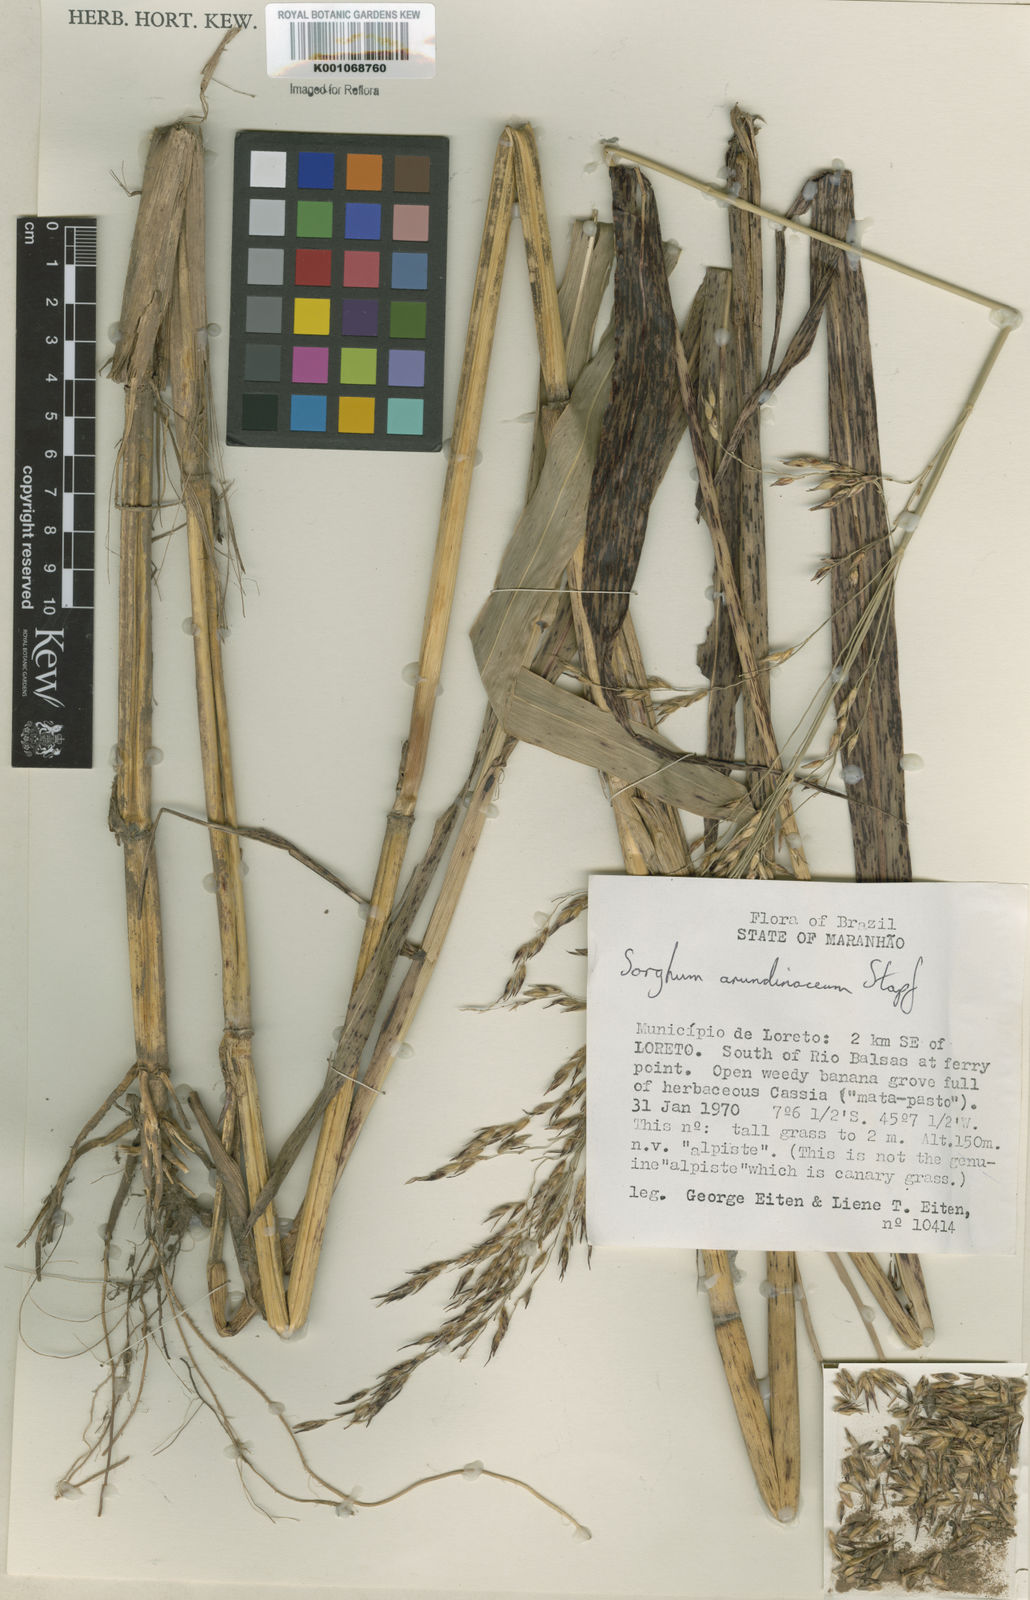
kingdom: Plantae
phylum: Tracheophyta
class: Liliopsida
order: Poales
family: Poaceae
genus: Sorghum
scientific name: Sorghum arundinaceum
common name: Sorghum
